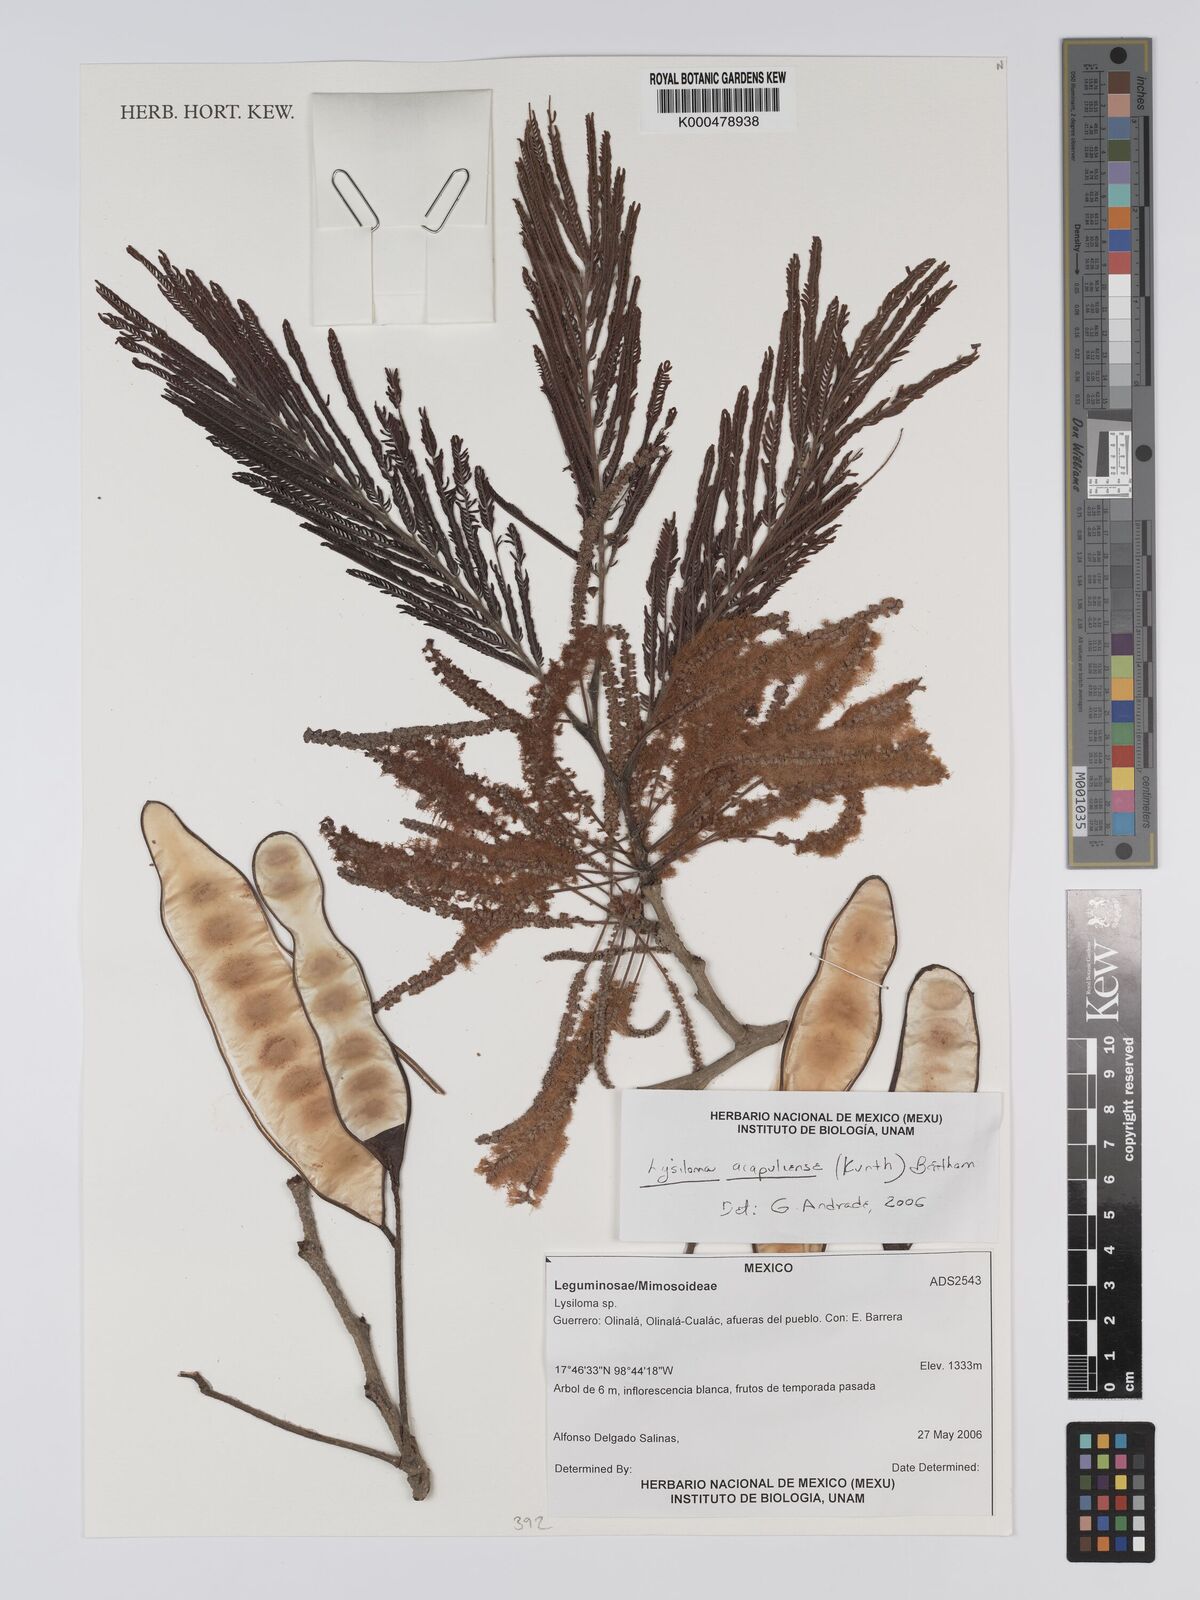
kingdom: Plantae
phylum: Tracheophyta
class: Magnoliopsida
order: Fabales
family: Fabaceae
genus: Lysiloma
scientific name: Lysiloma
